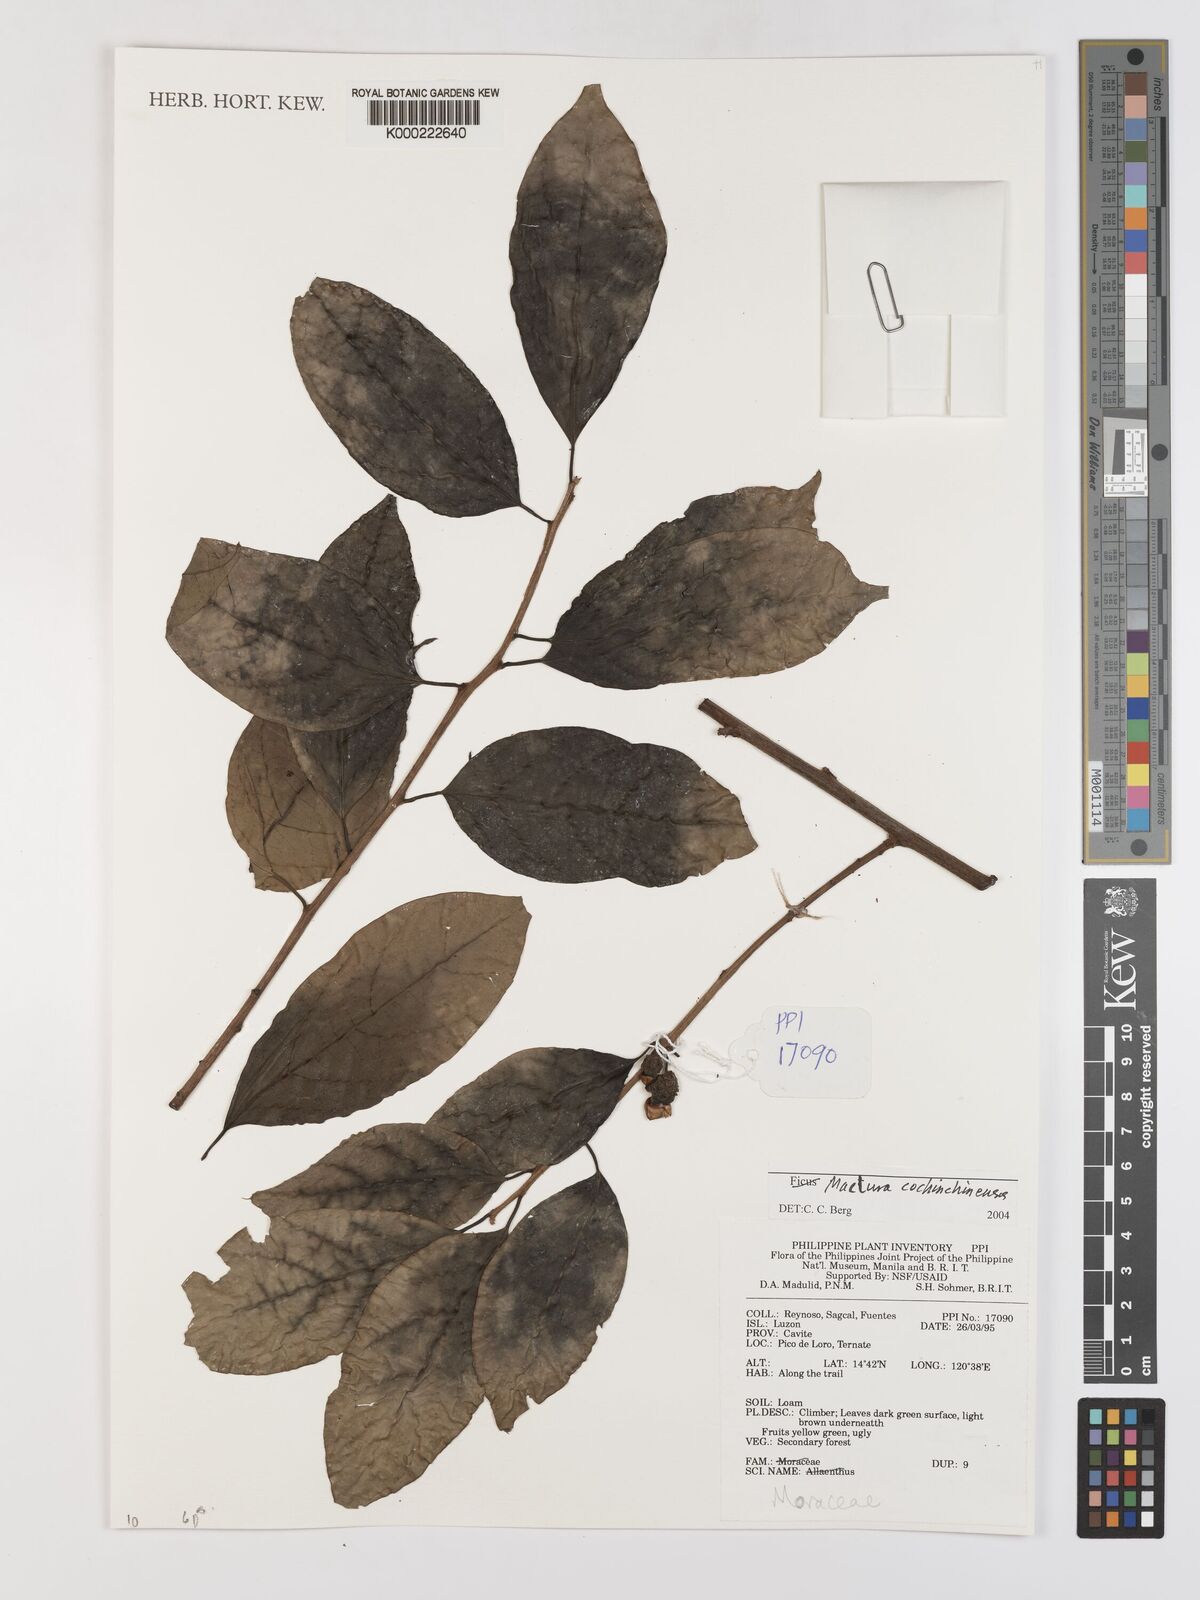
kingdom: Plantae
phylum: Tracheophyta
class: Magnoliopsida
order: Rosales
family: Moraceae
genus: Maclura
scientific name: Maclura cochinchinensis
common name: Cockspurthorn
